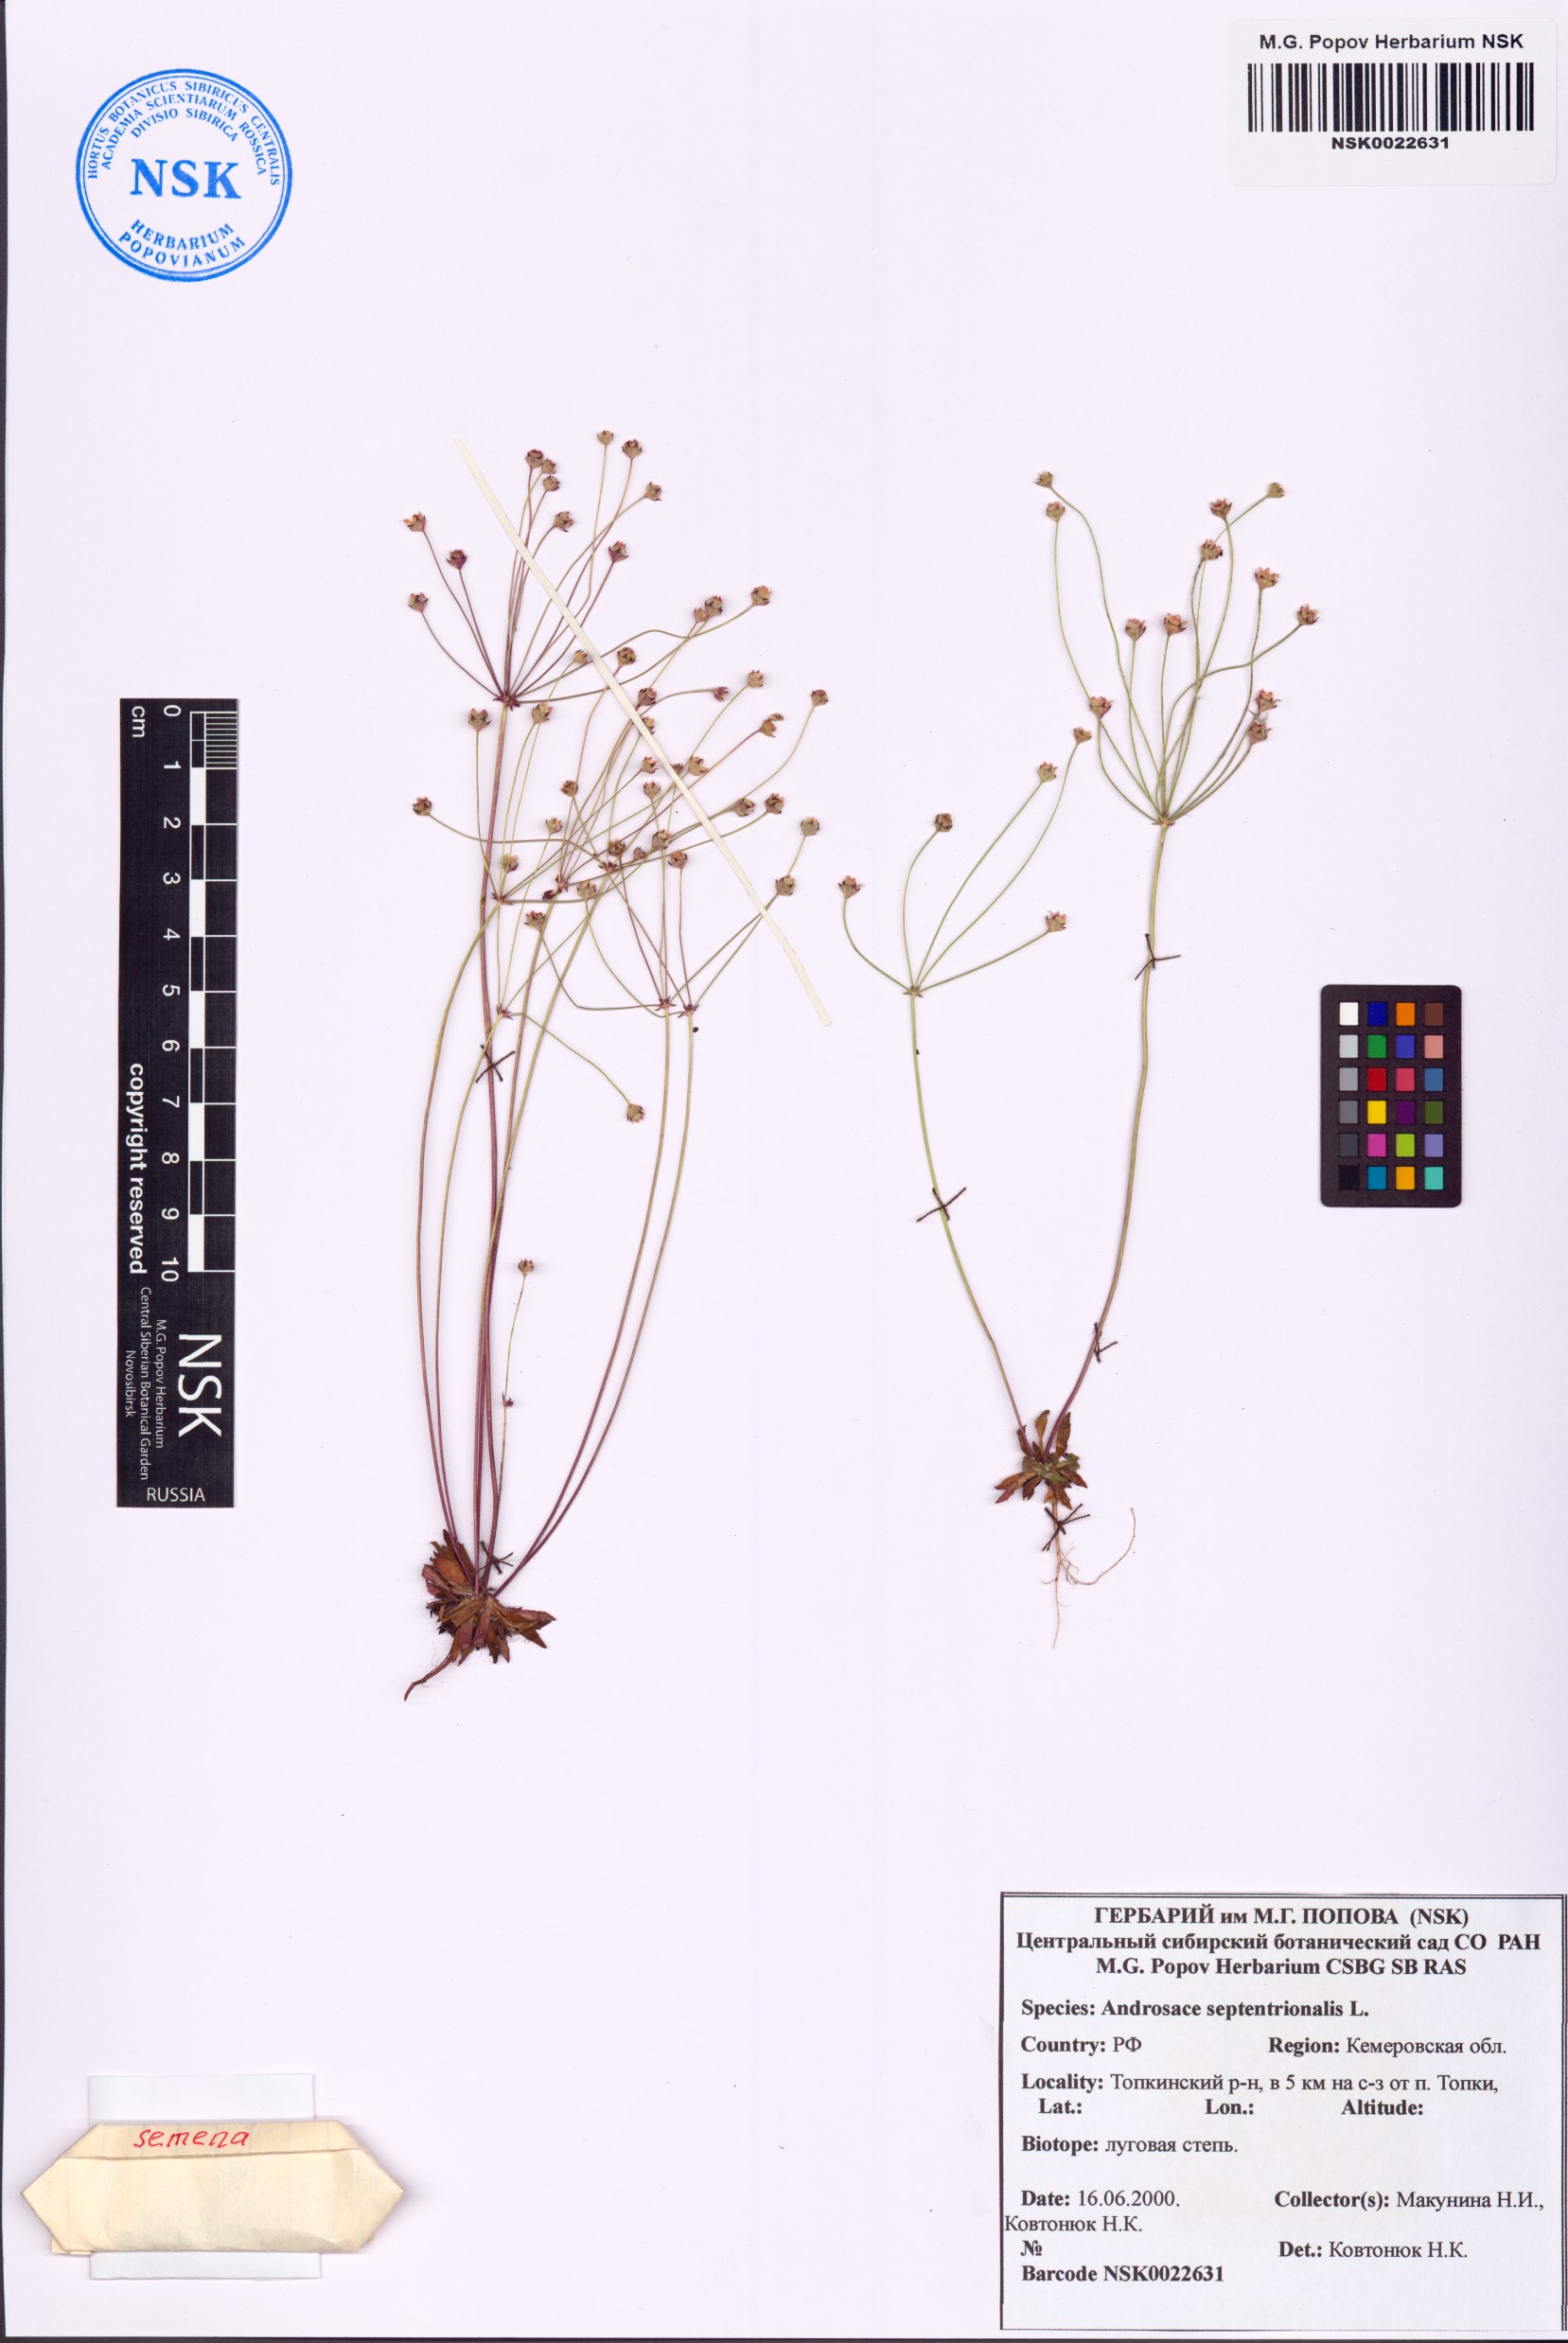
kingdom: Plantae
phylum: Tracheophyta
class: Magnoliopsida
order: Ericales
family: Primulaceae
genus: Androsace
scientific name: Androsace septentrionalis
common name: Hairy northern fairy-candelabra
